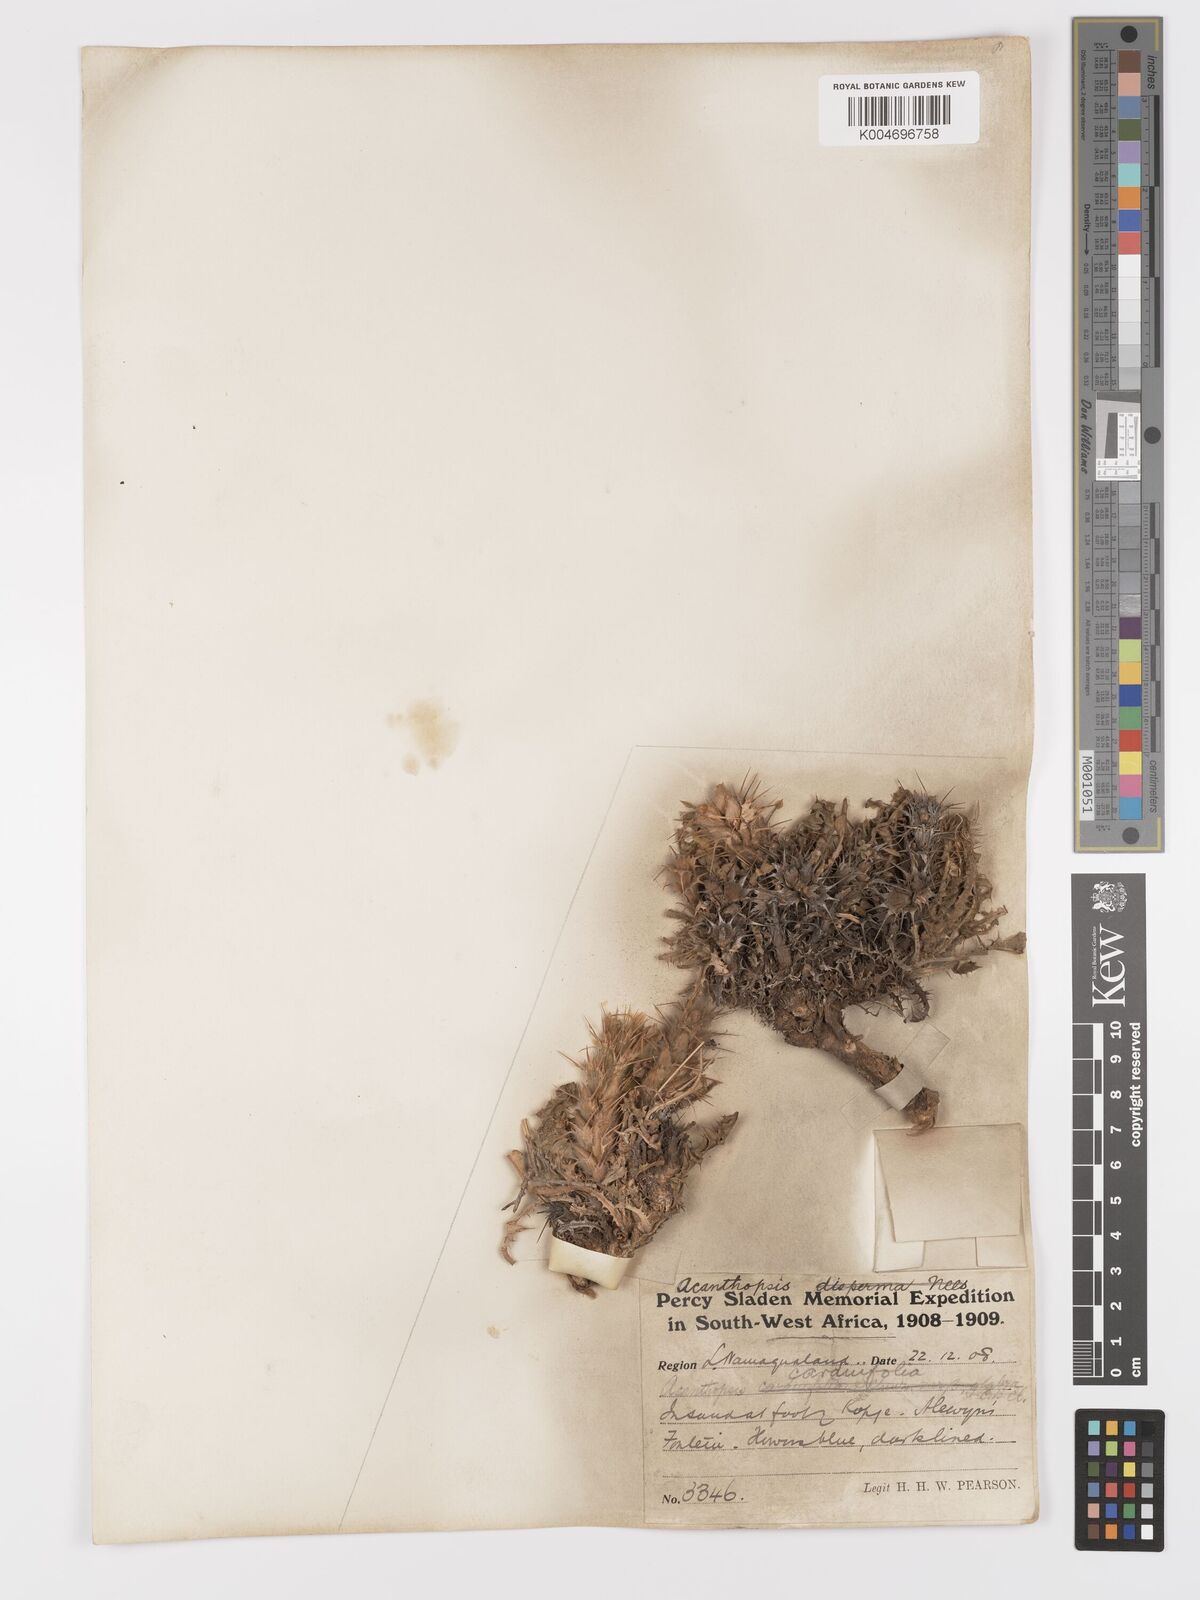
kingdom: Plantae
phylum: Tracheophyta
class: Magnoliopsida
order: Lamiales
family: Acanthaceae
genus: Acanthopsis
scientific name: Acanthopsis carduifolia
